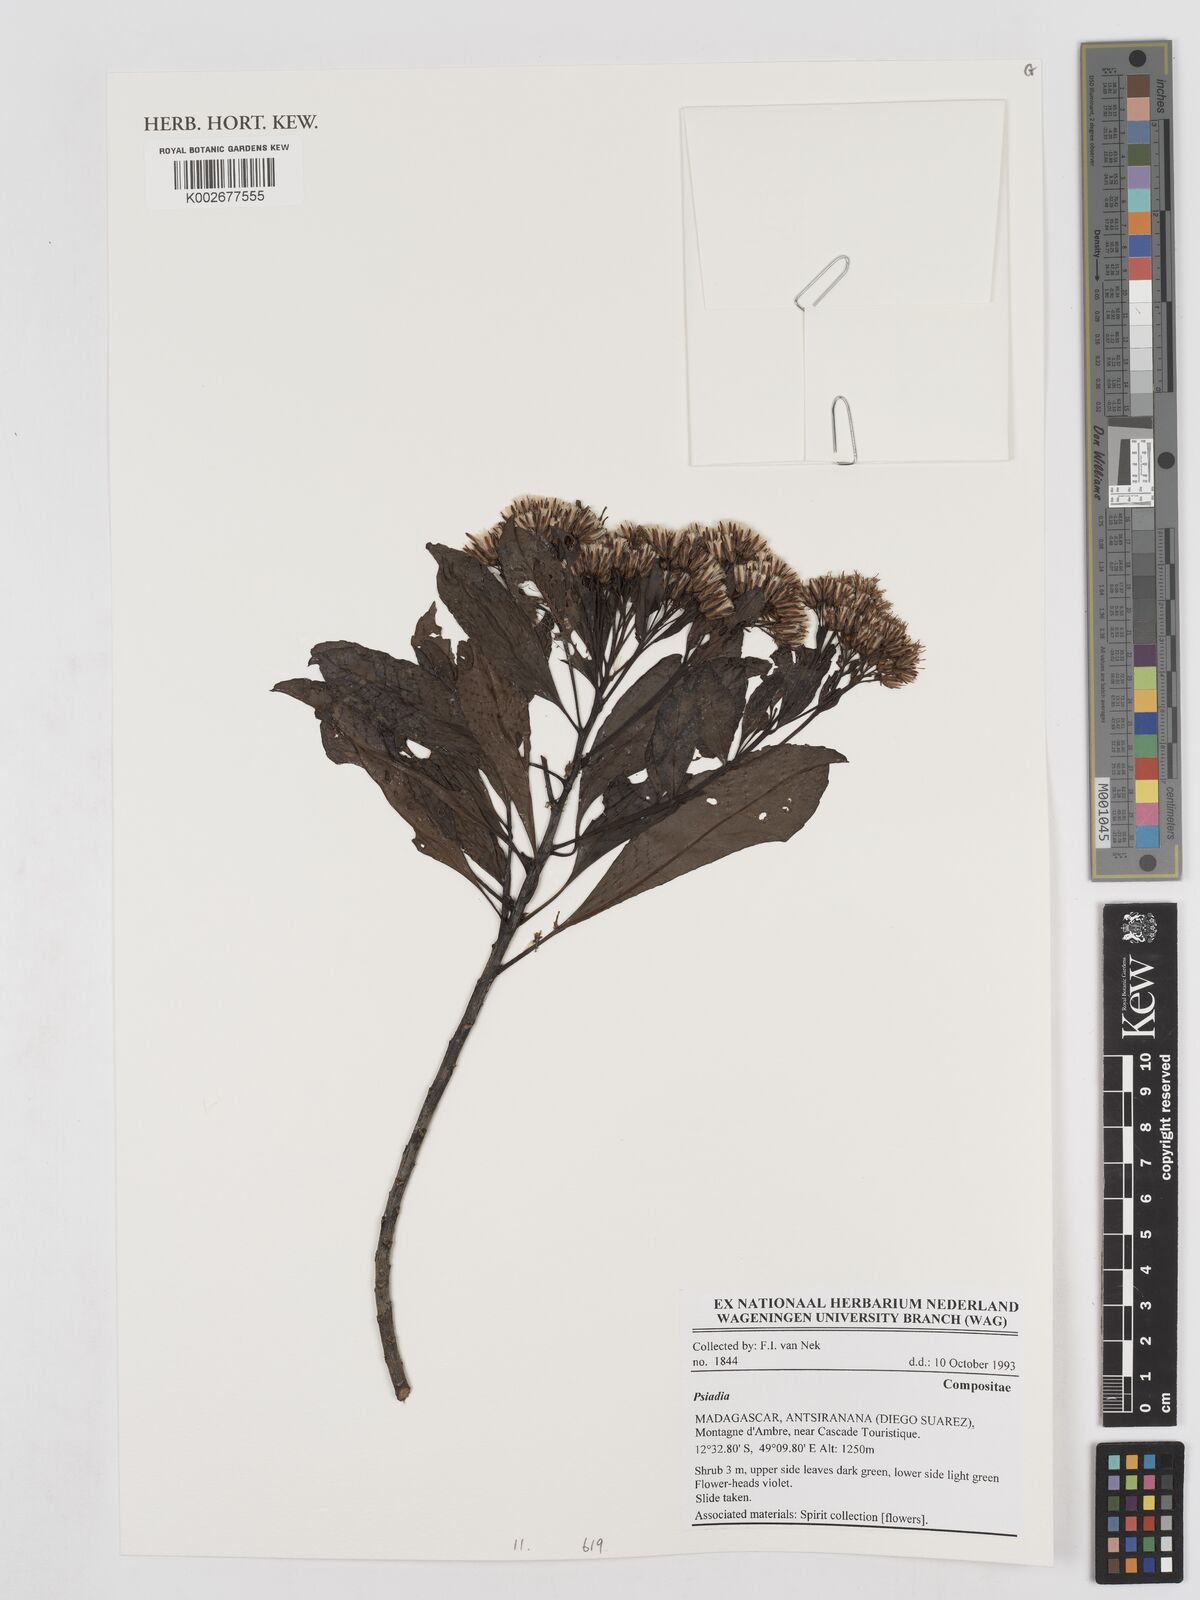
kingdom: Plantae
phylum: Tracheophyta
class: Magnoliopsida
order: Asterales
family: Asteraceae
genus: Psiadia
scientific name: Psiadia
